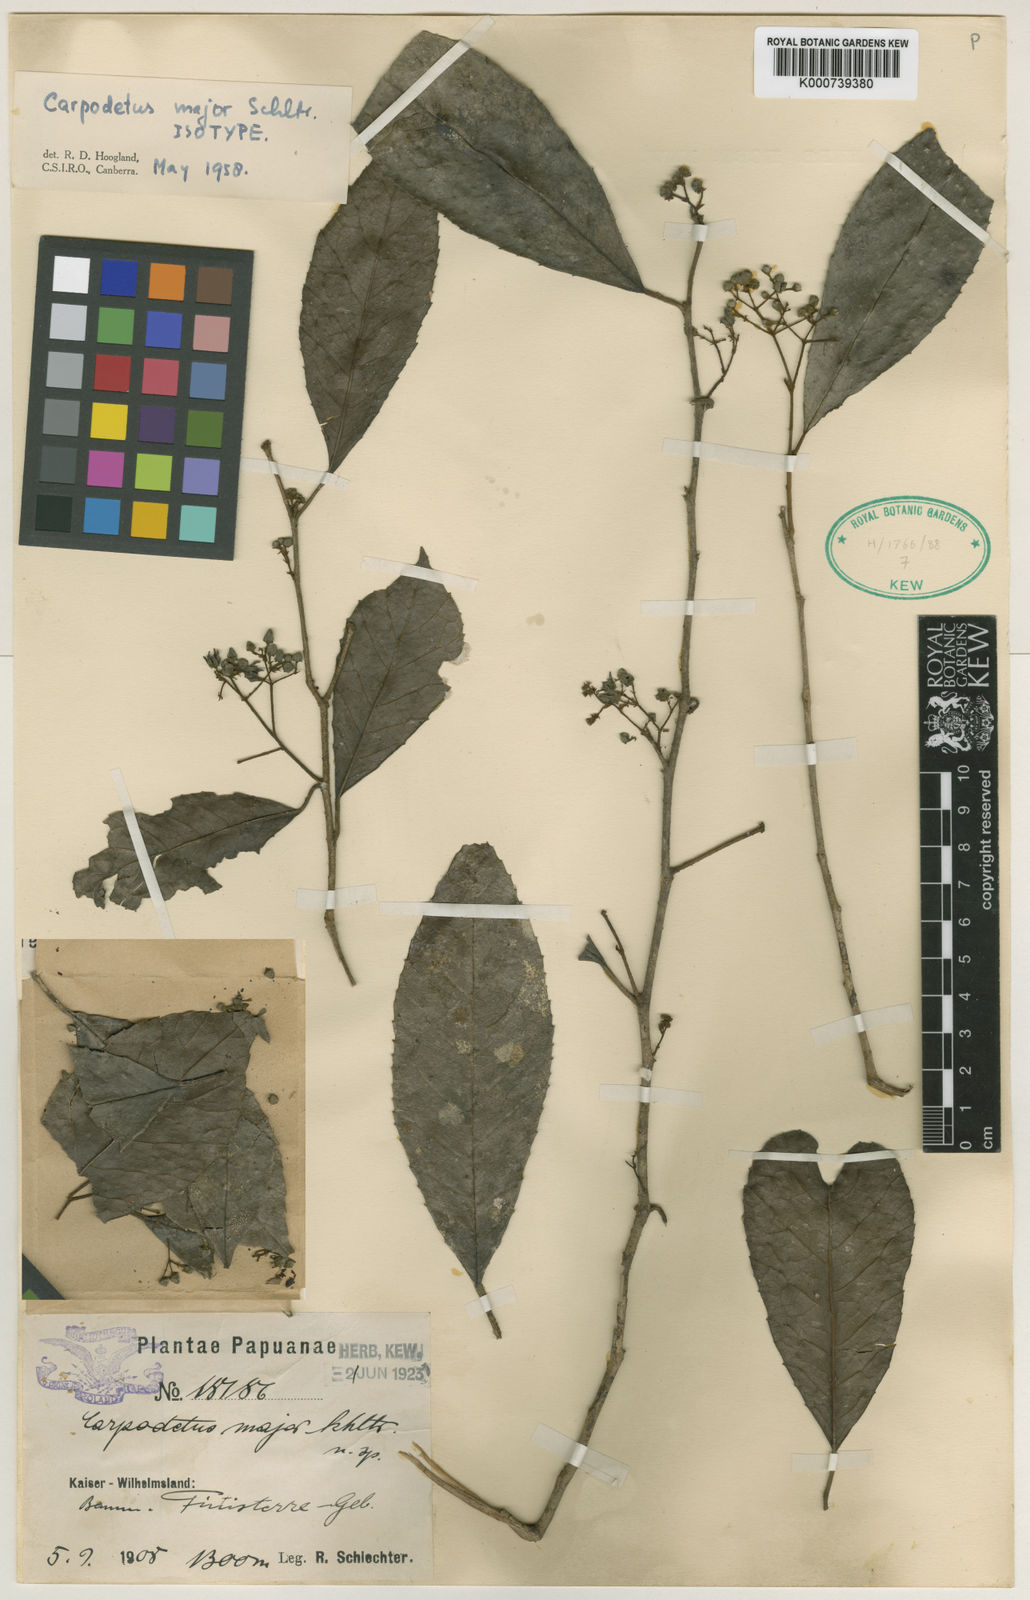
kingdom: Plantae
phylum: Tracheophyta
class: Magnoliopsida
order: Asterales
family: Rousseaceae
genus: Carpodetus
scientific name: Carpodetus arboreus
